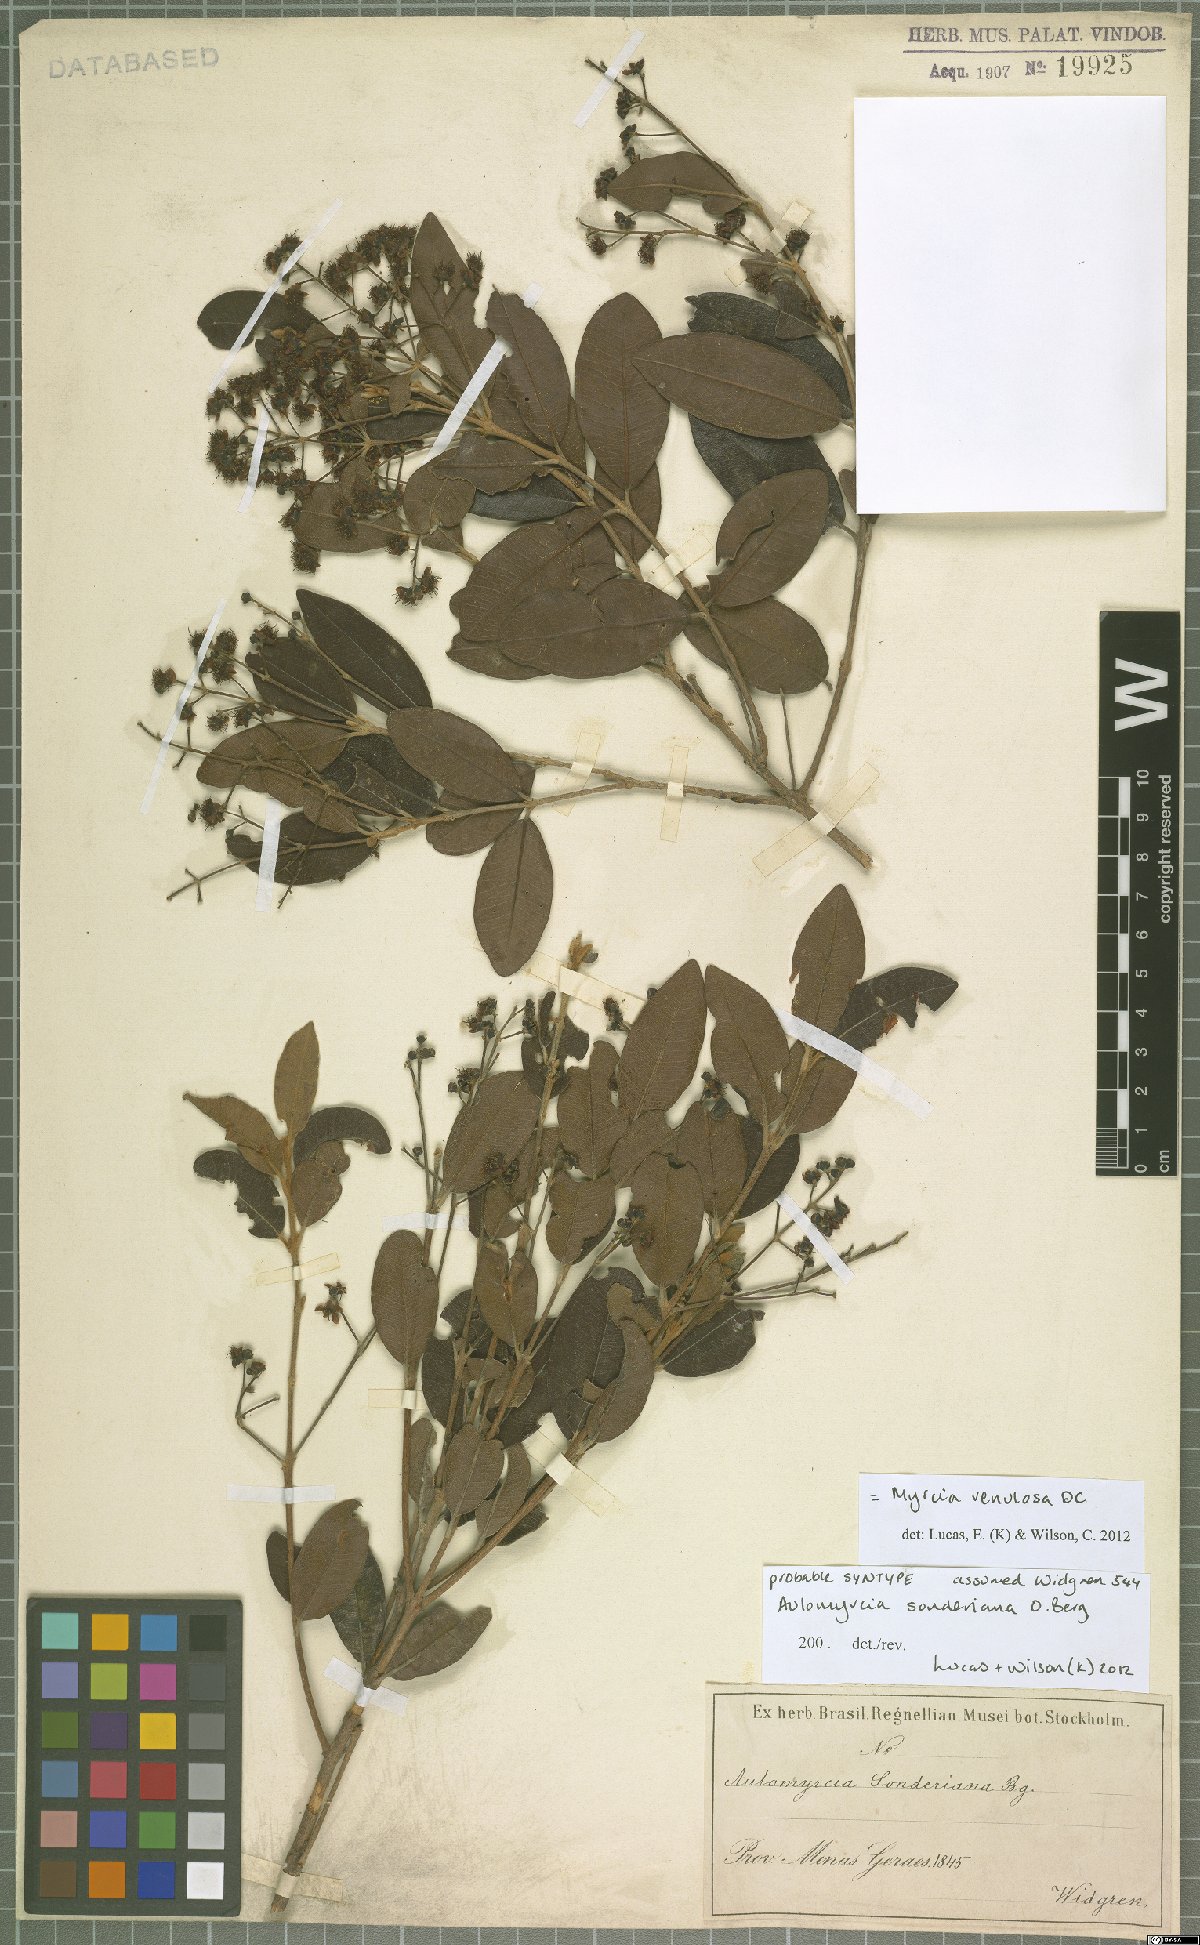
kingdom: Plantae
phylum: Tracheophyta
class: Magnoliopsida
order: Myrtales
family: Myrtaceae
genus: Myrcia
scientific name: Myrcia venulosa
